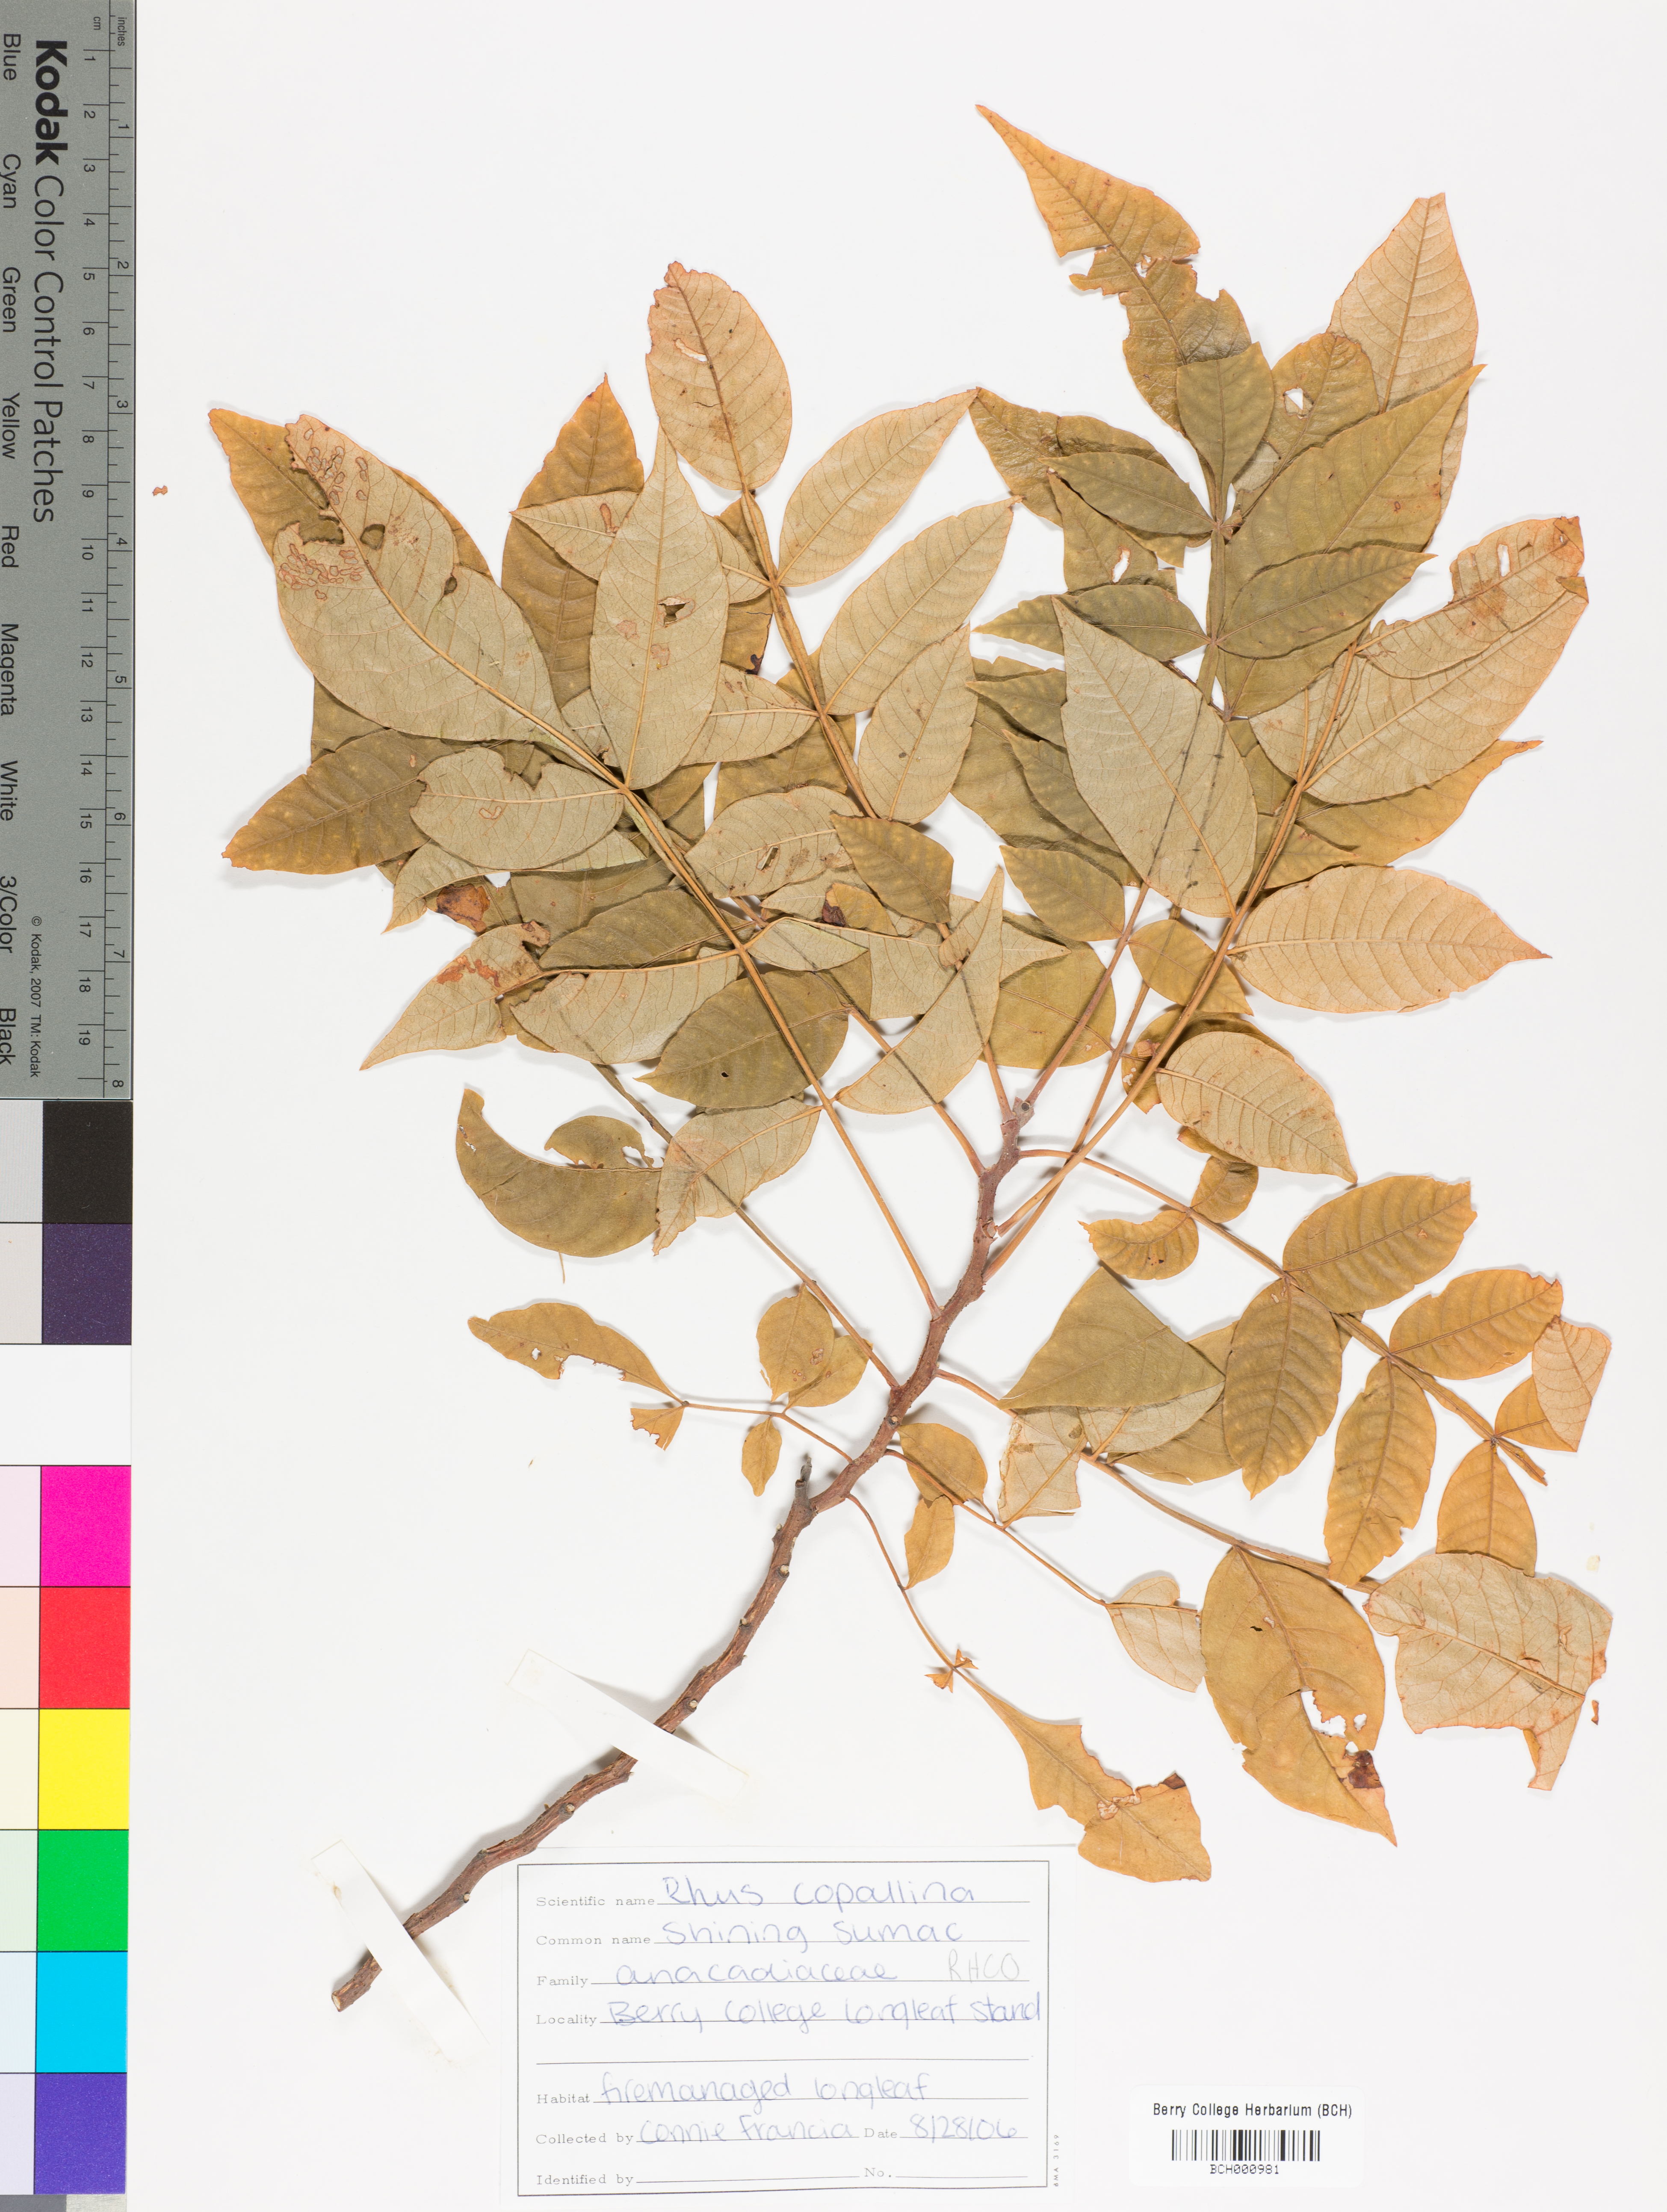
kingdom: Plantae
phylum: Tracheophyta
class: Magnoliopsida
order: Sapindales
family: Anacardiaceae
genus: Rhus
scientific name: Rhus copallina
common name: Shining sumac
